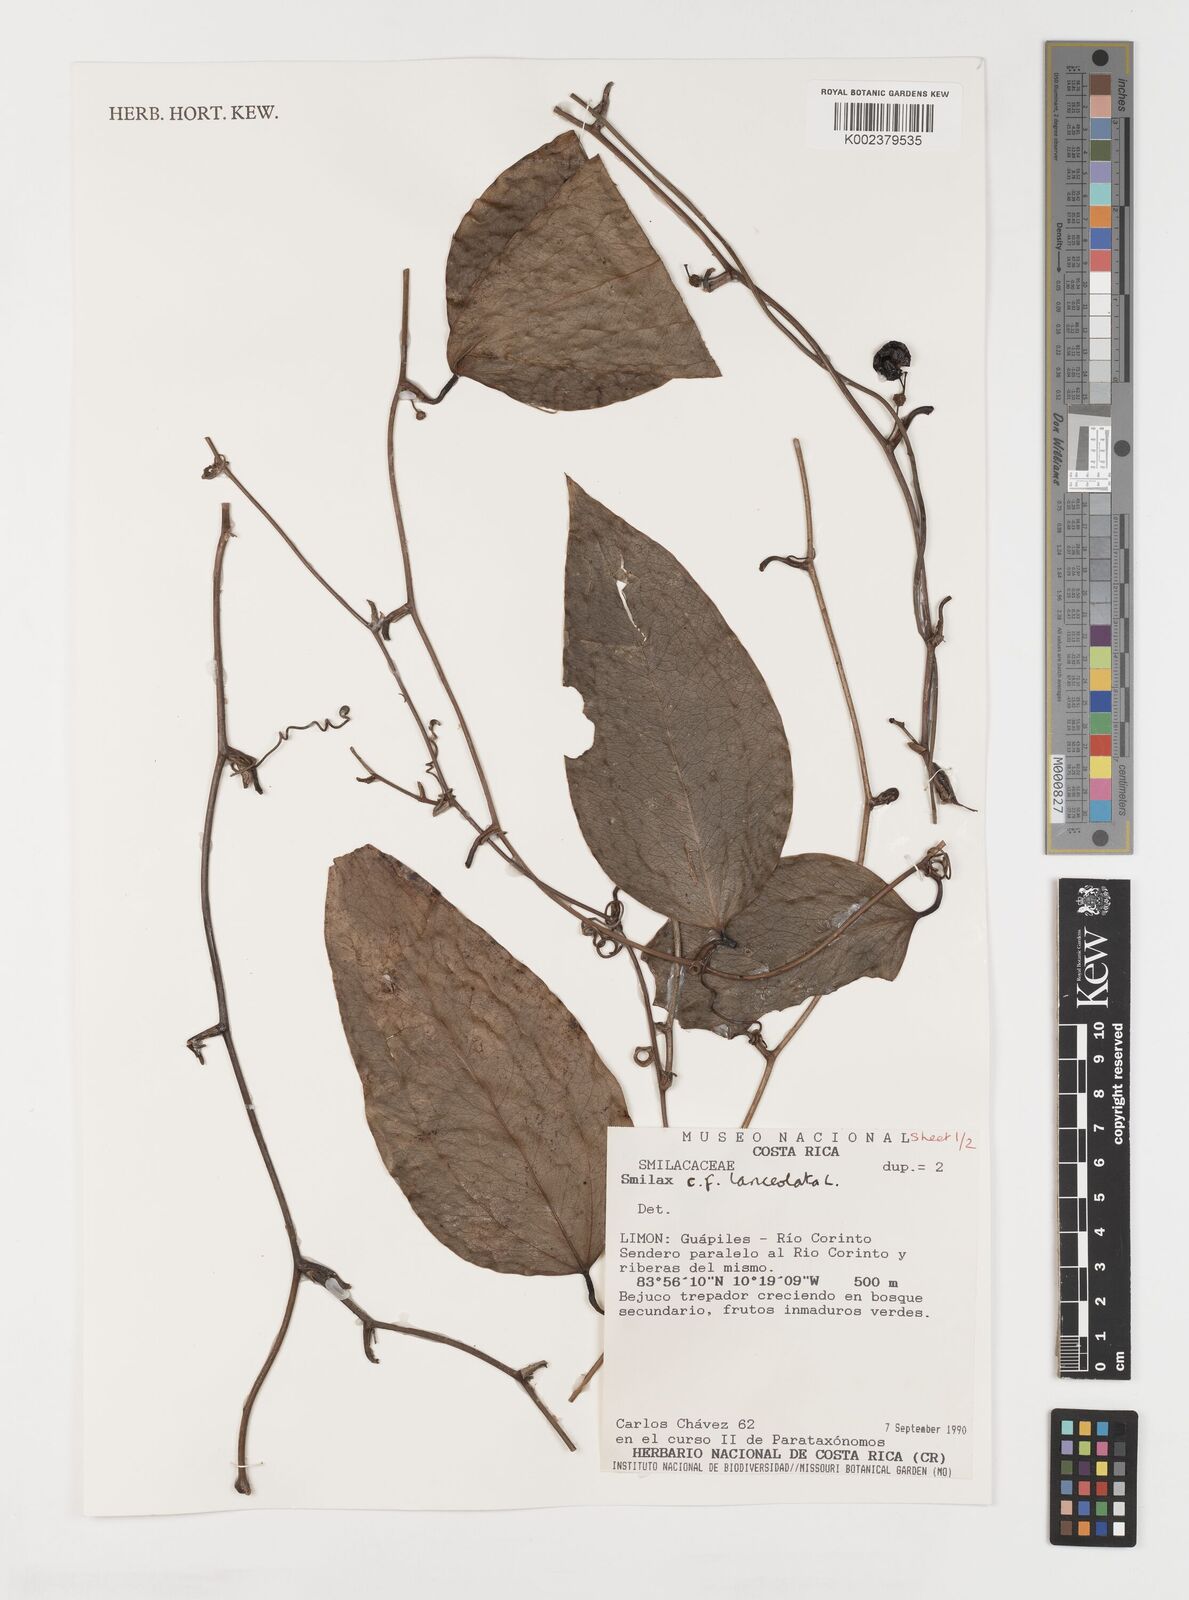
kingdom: Plantae
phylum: Tracheophyta
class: Liliopsida
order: Liliales
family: Smilacaceae
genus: Smilax
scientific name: Smilax laurifolia
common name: Bamboovine
